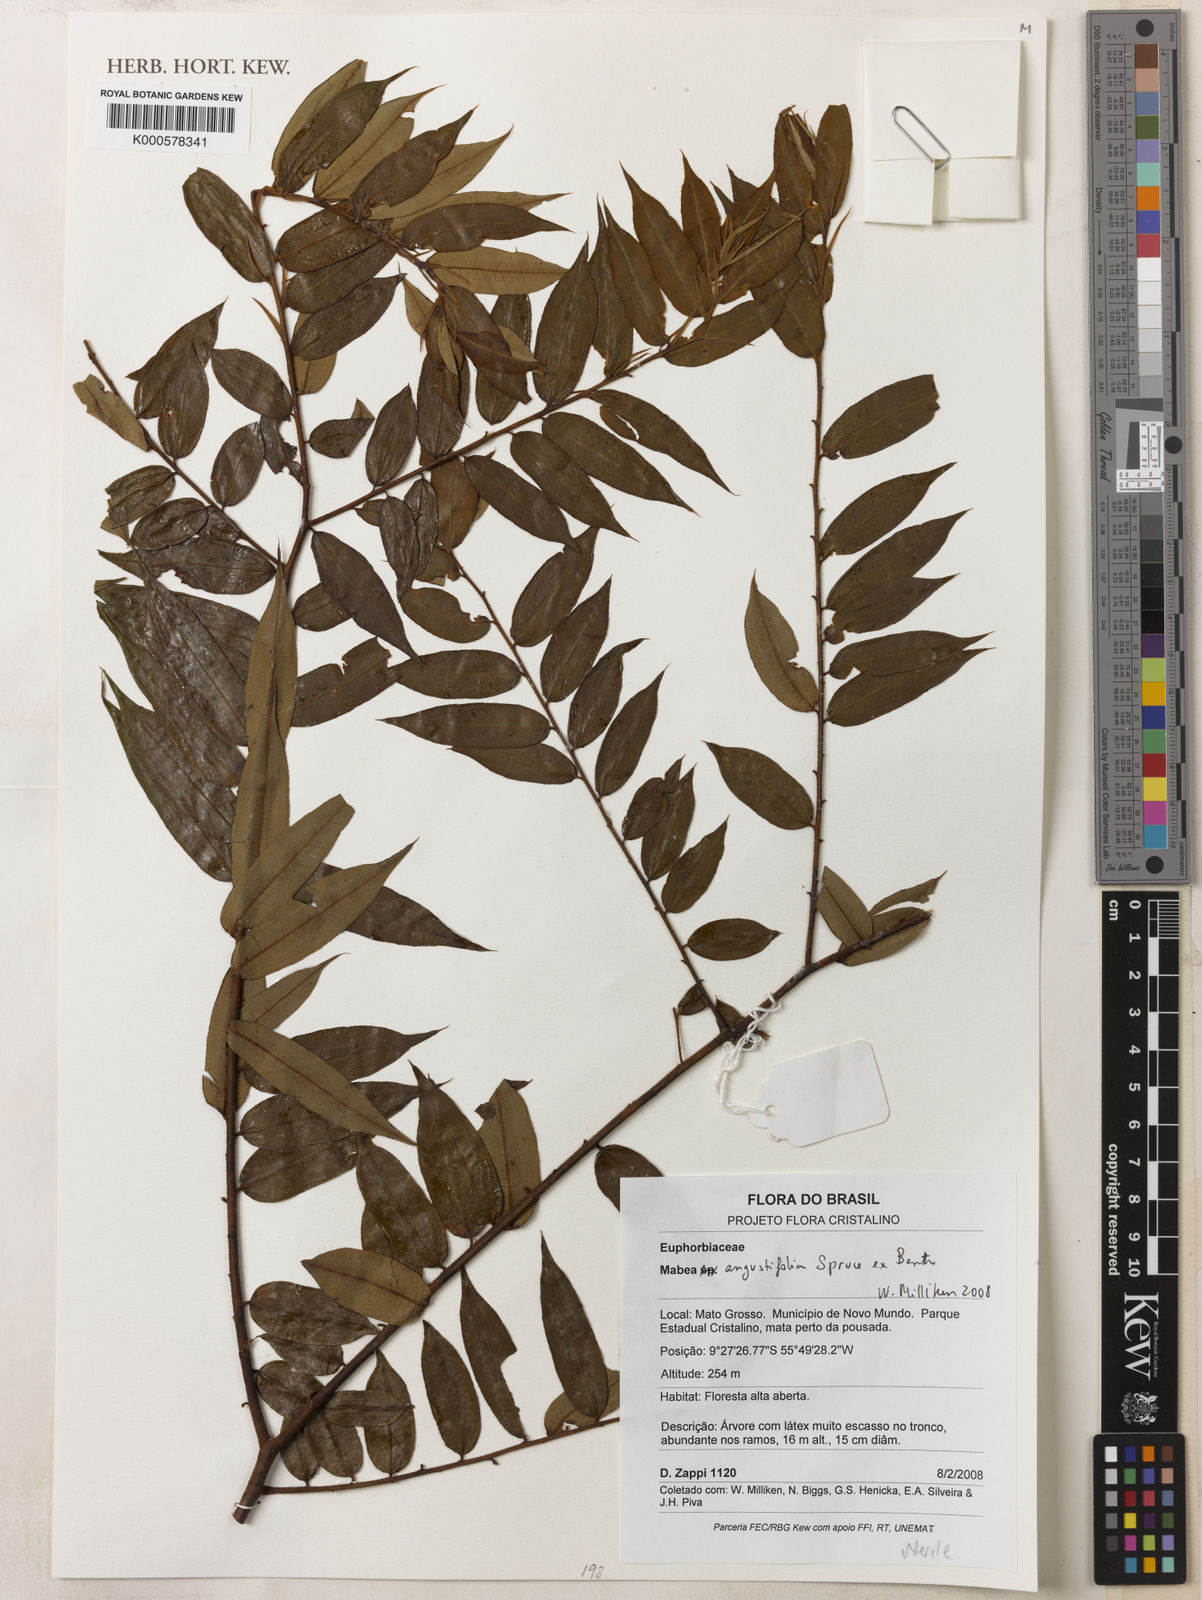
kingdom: Plantae
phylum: Tracheophyta
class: Magnoliopsida
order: Malpighiales
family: Euphorbiaceae
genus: Mabea
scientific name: Mabea angustifolia
